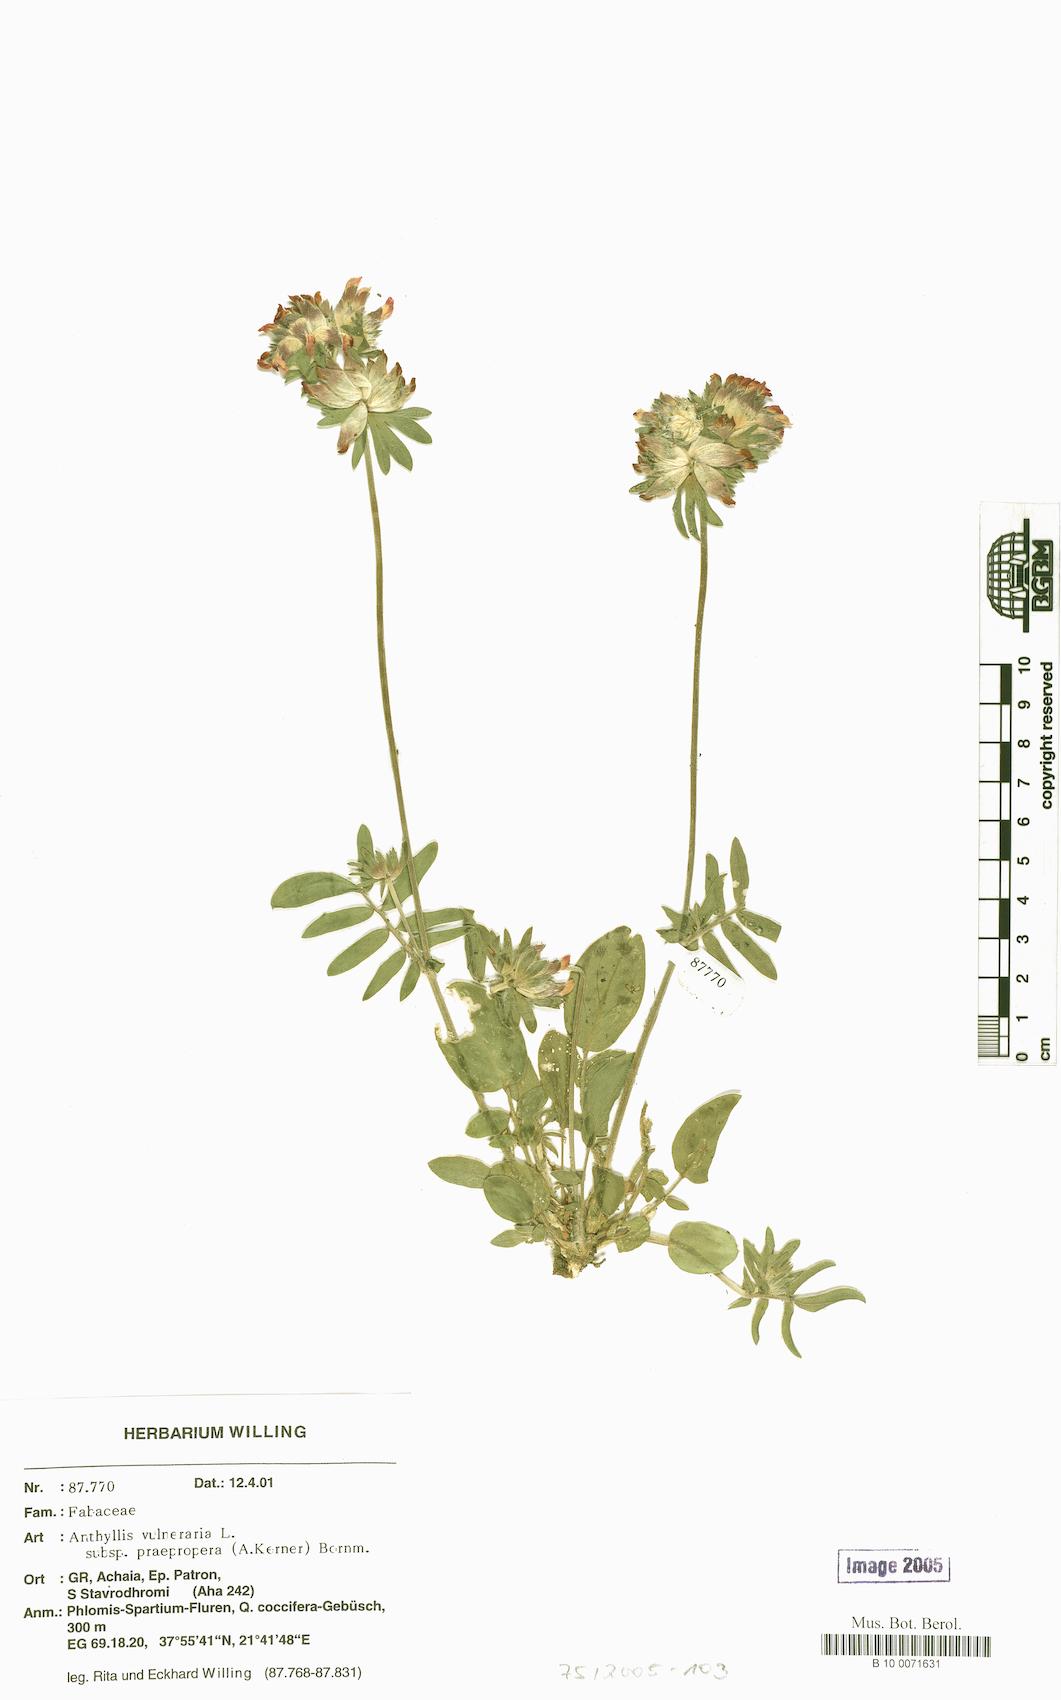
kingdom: Plantae
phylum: Tracheophyta
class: Magnoliopsida
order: Fabales
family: Fabaceae
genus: Anthyllis
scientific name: Anthyllis vulneraria
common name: Kidney vetch
